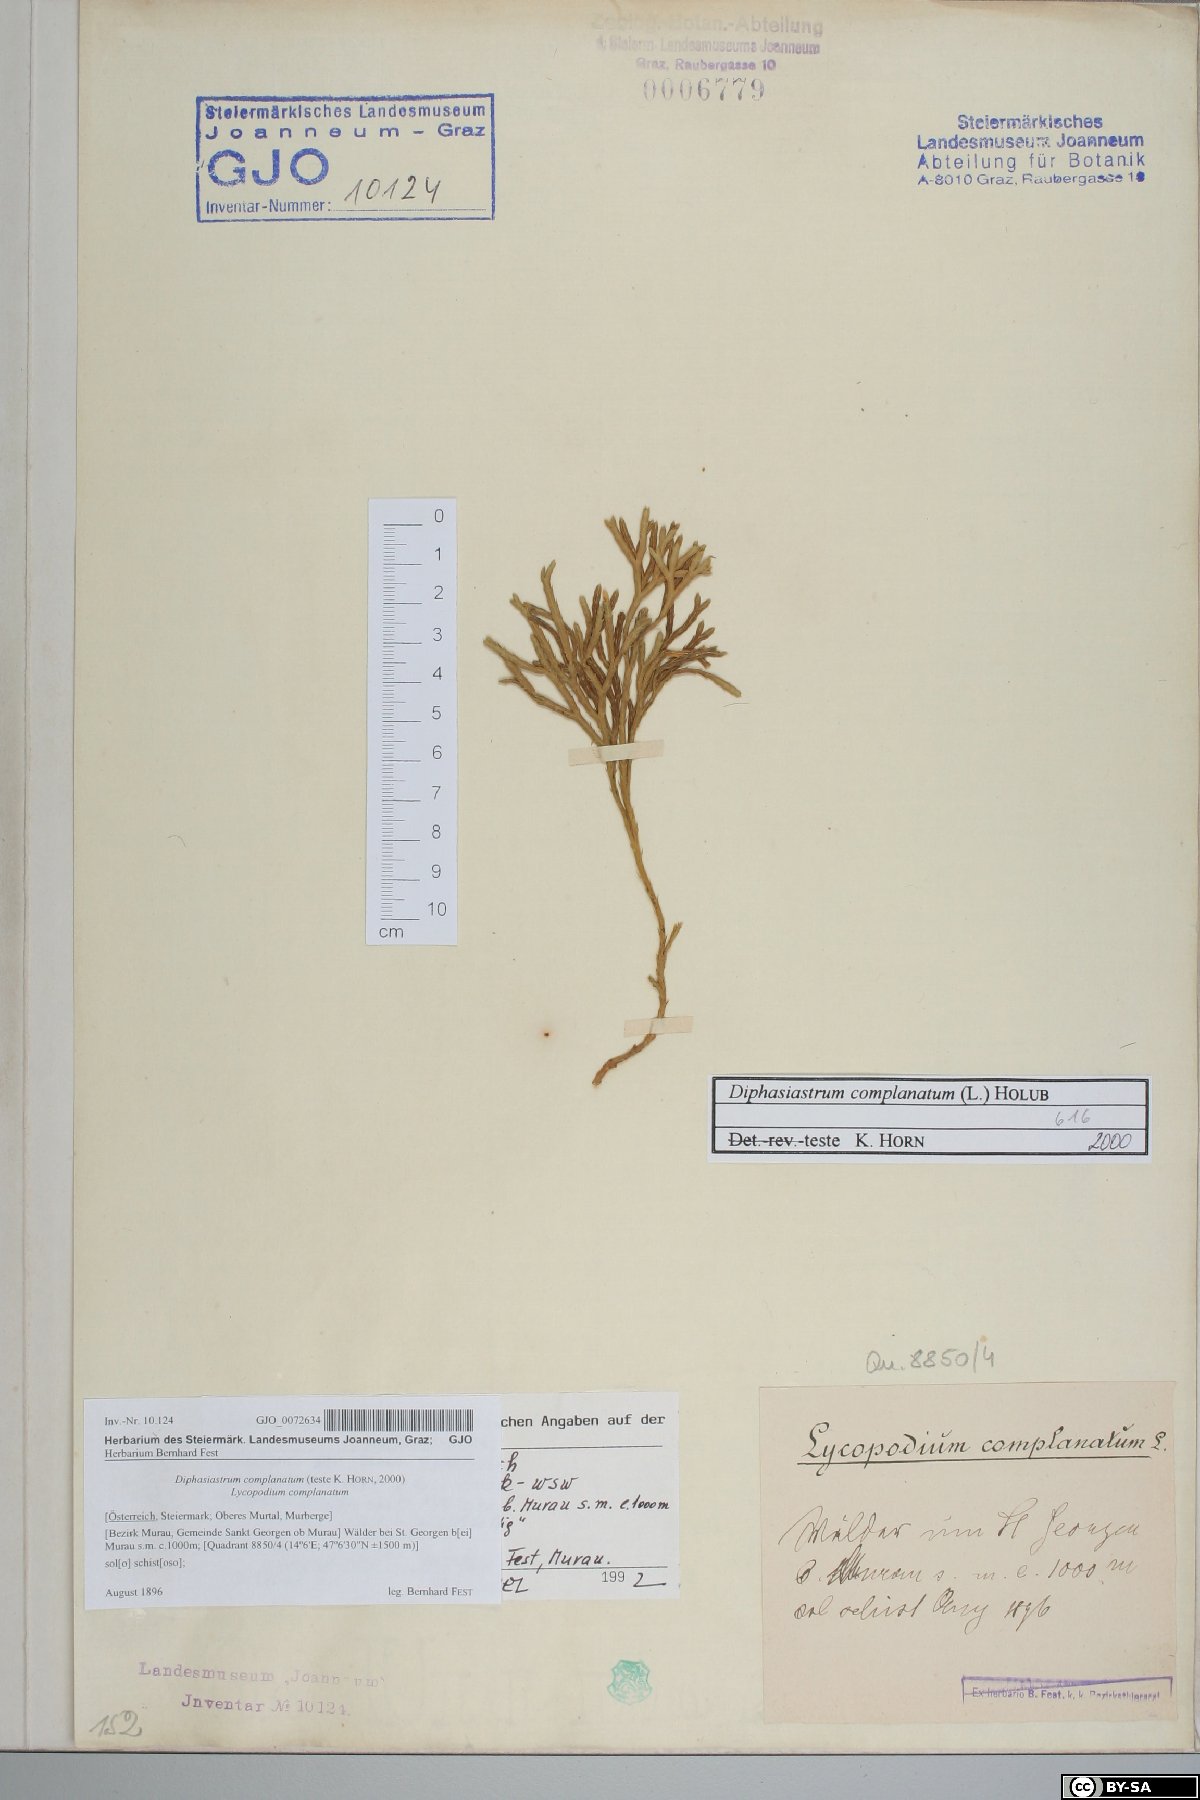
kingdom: Plantae
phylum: Tracheophyta
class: Lycopodiopsida
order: Lycopodiales
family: Lycopodiaceae
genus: Diphasiastrum
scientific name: Diphasiastrum complanatum
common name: Northern running-pine
